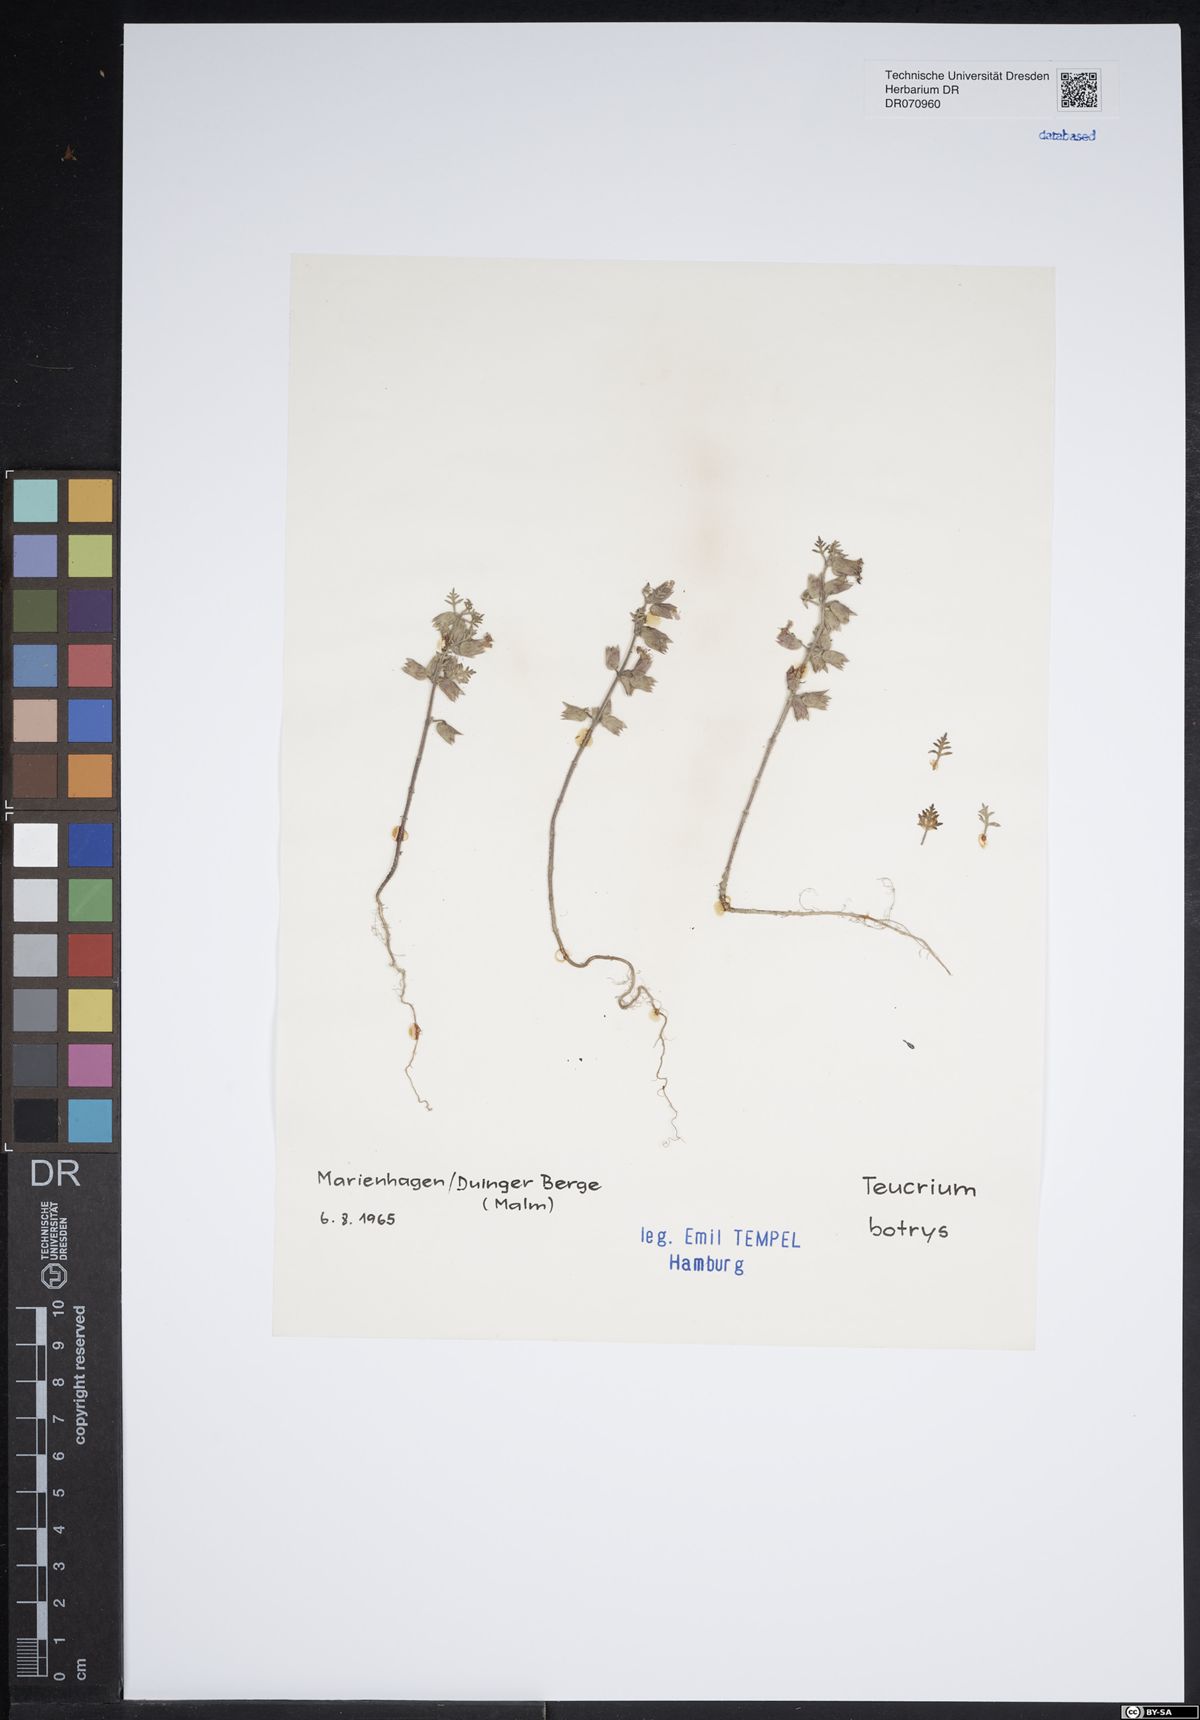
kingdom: Plantae
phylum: Tracheophyta
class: Magnoliopsida
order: Lamiales
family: Lamiaceae
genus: Teucrium
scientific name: Teucrium botrys
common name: Cut-leaved germander
